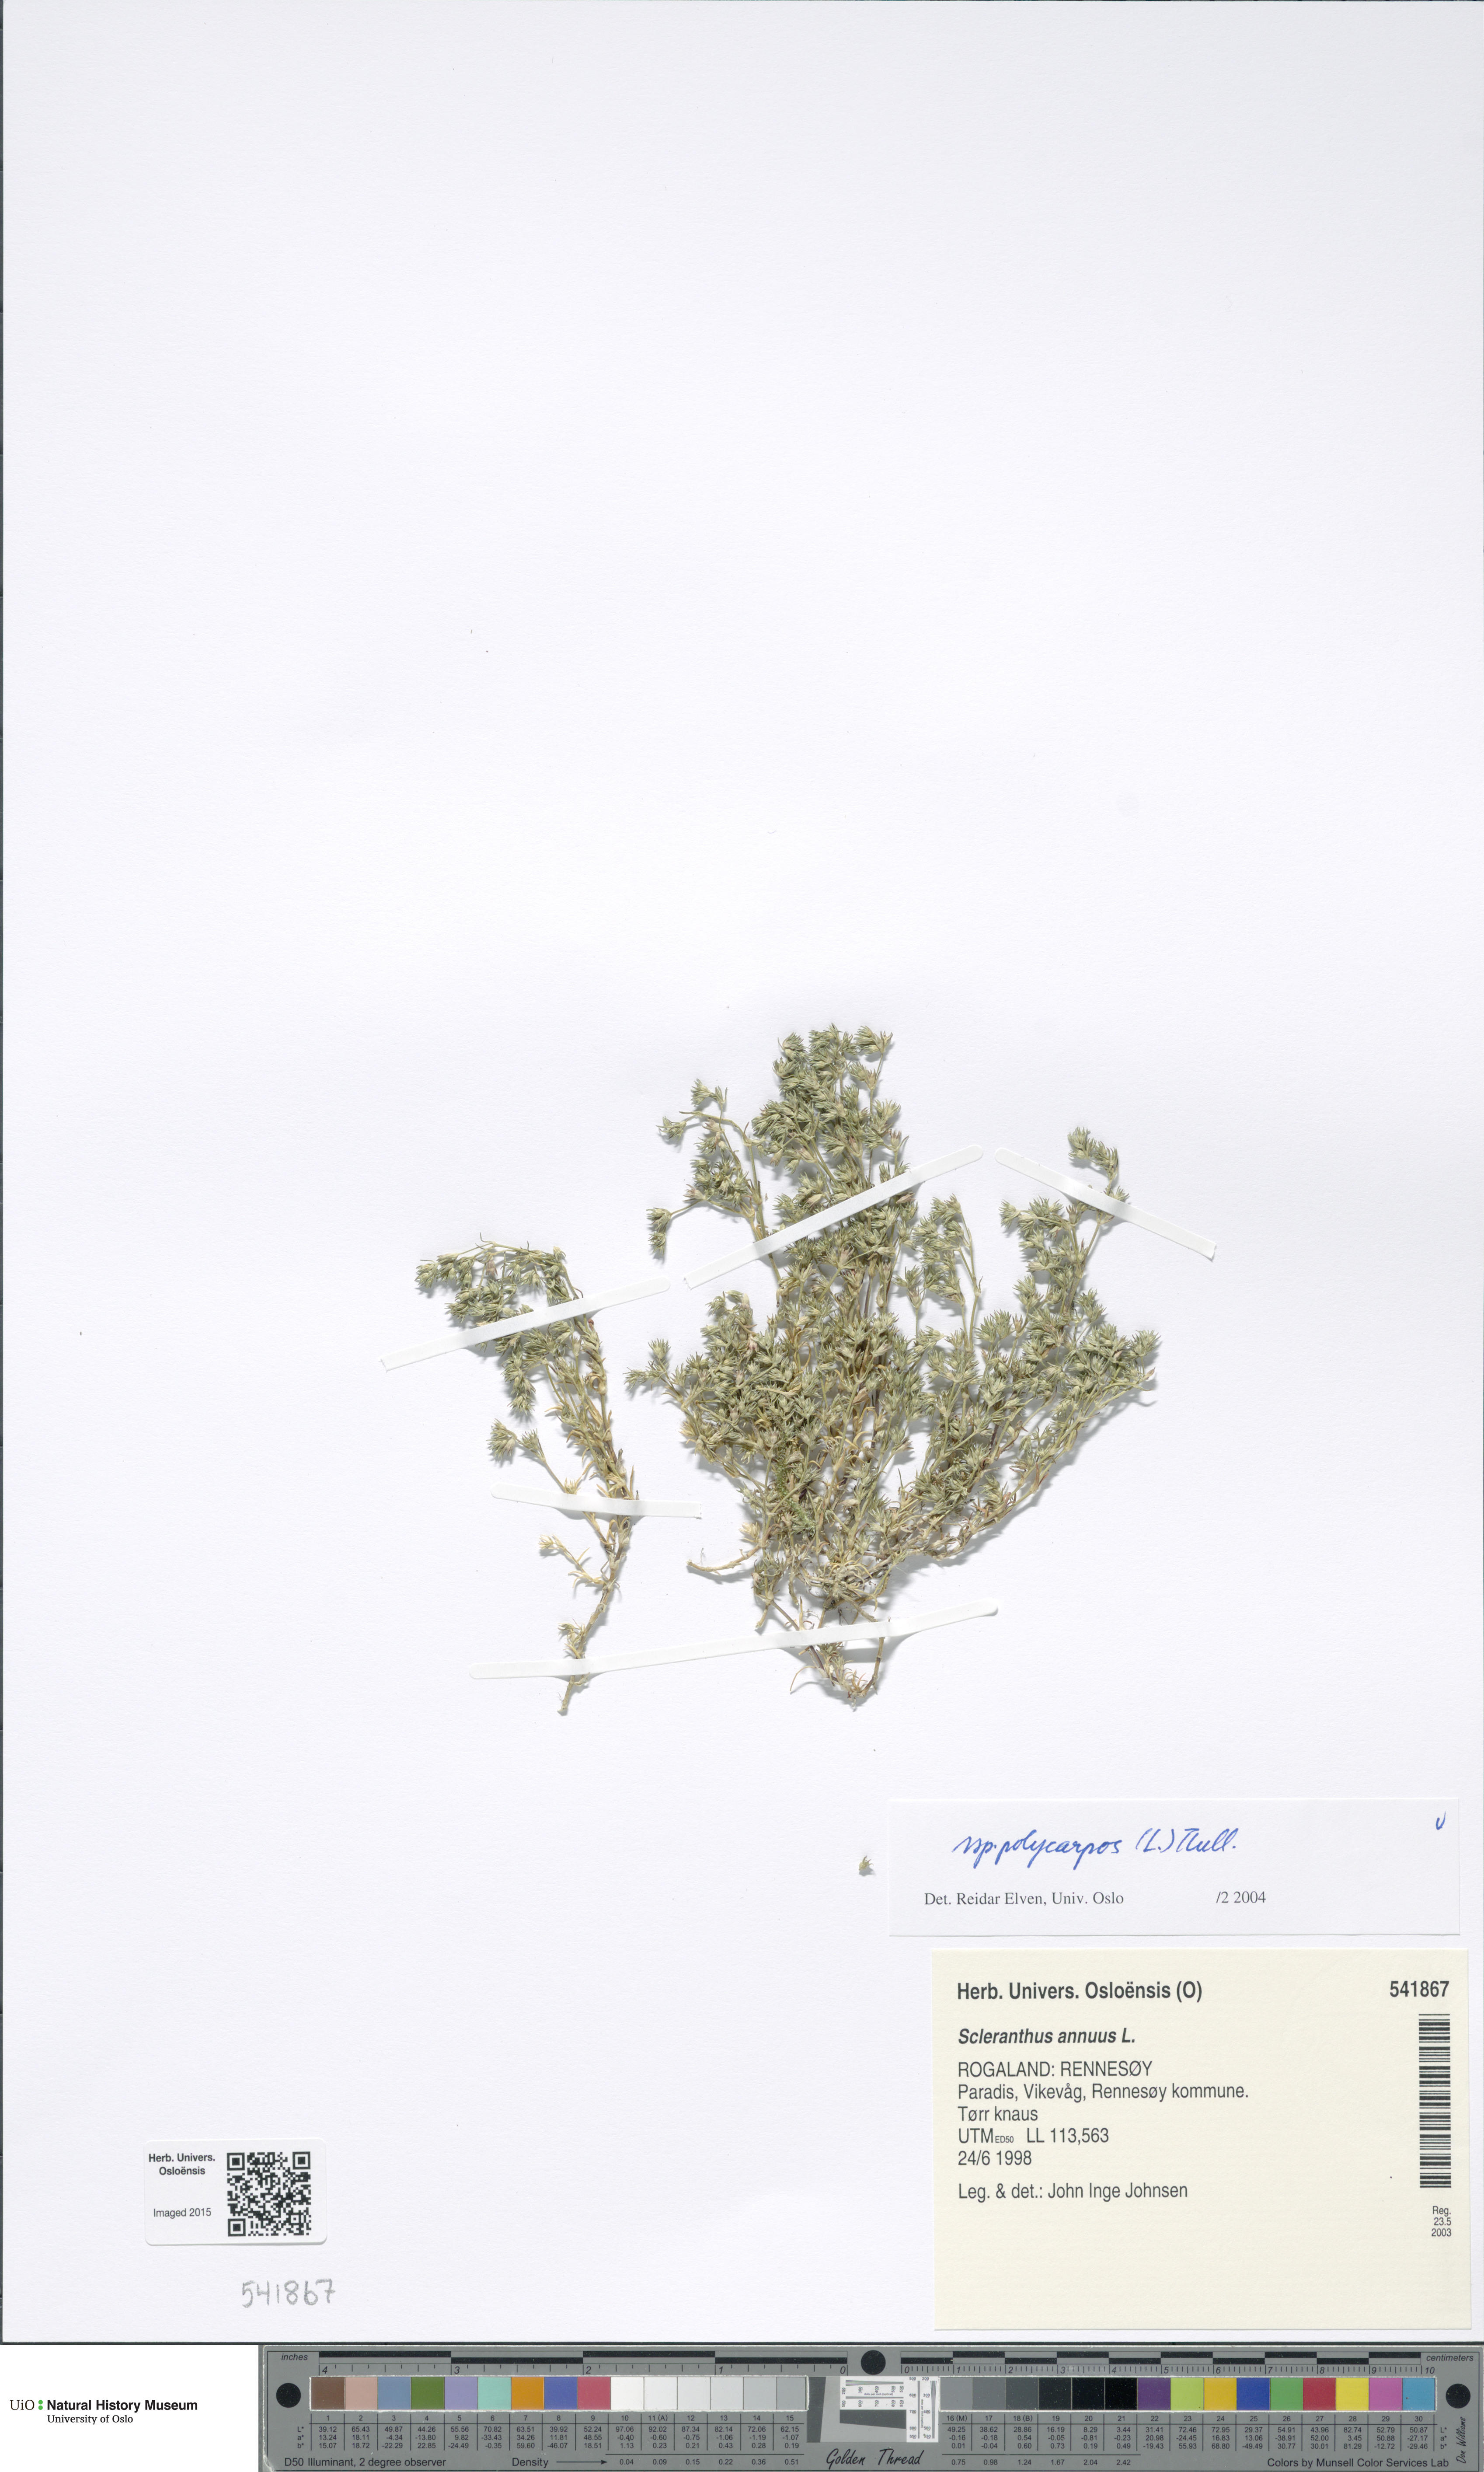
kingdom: Plantae
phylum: Tracheophyta
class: Magnoliopsida
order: Caryophyllales
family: Caryophyllaceae
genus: Scleranthus
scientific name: Scleranthus annuus
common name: Annual knawel
